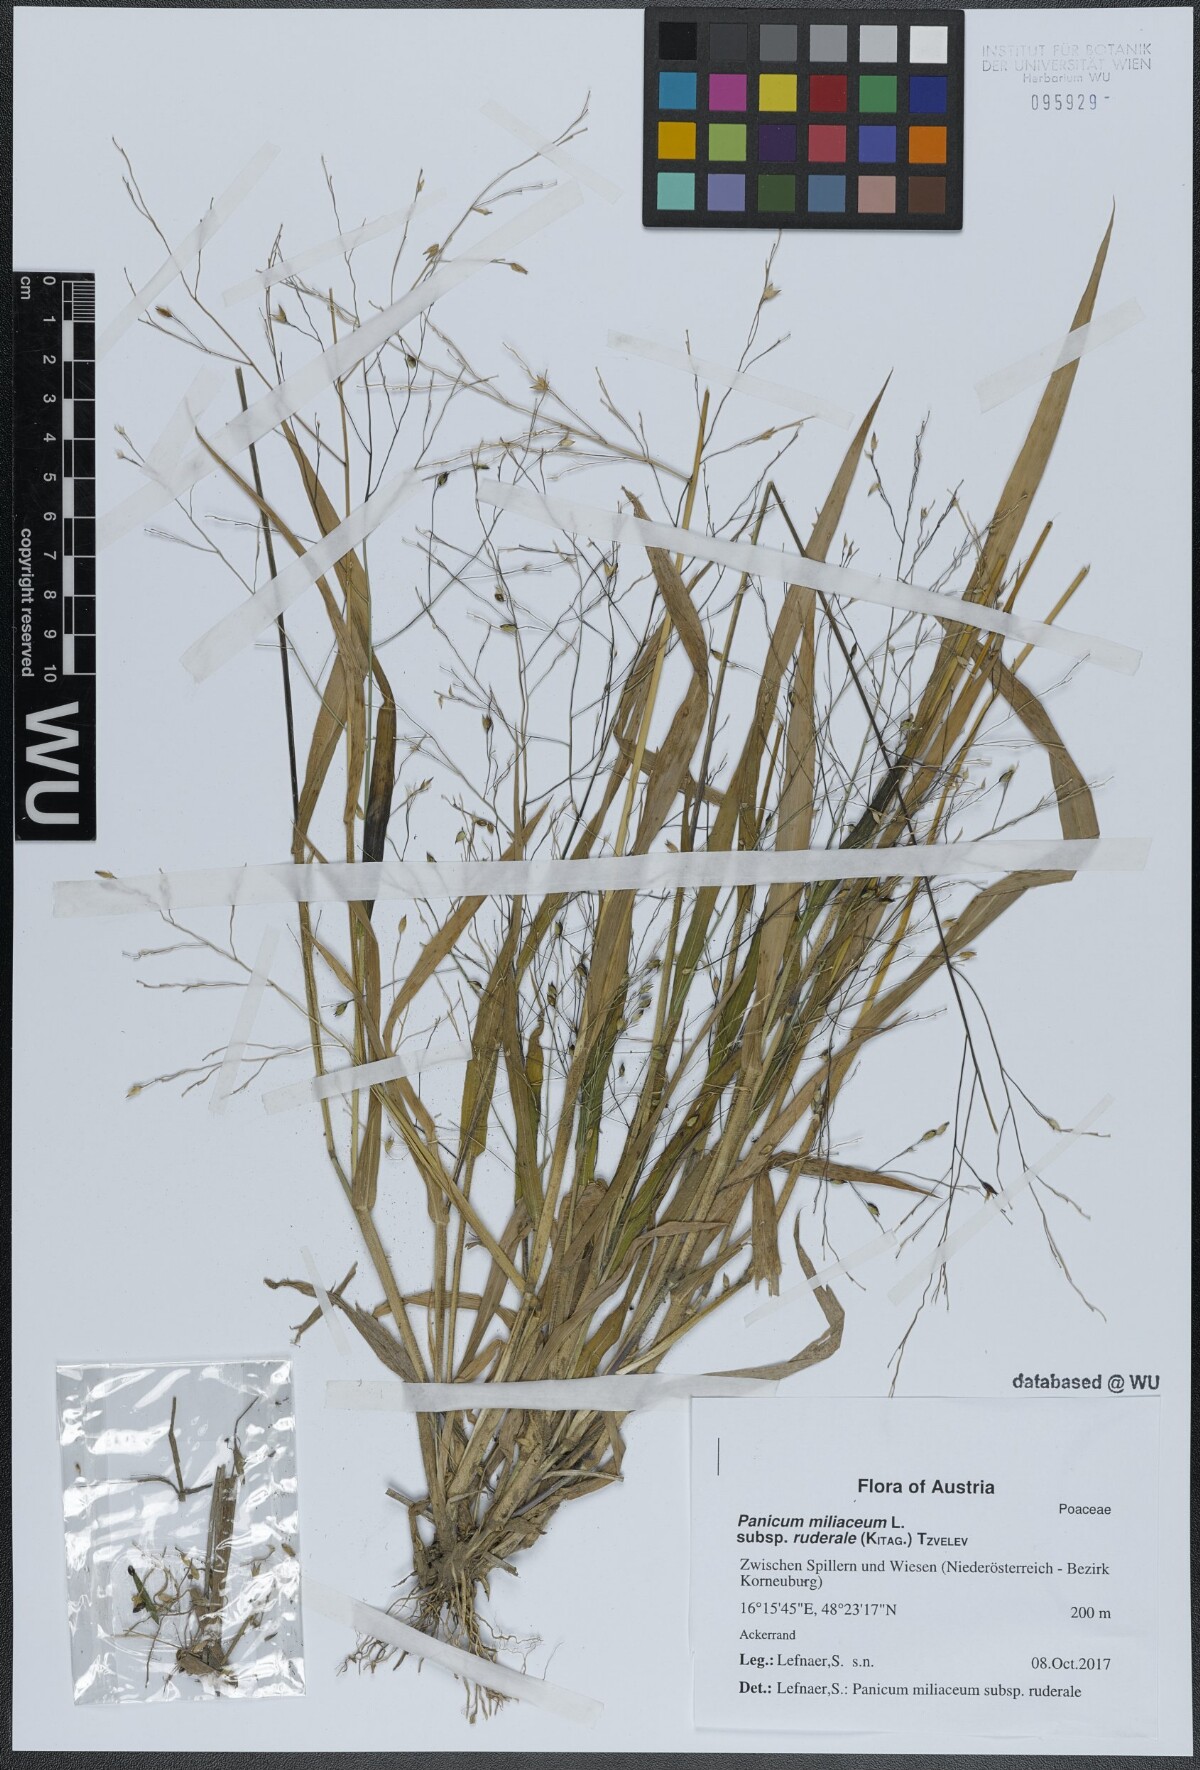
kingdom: Plantae
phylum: Tracheophyta
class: Liliopsida
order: Poales
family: Poaceae
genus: Panicum
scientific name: Panicum miliaceum
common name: Common millet
